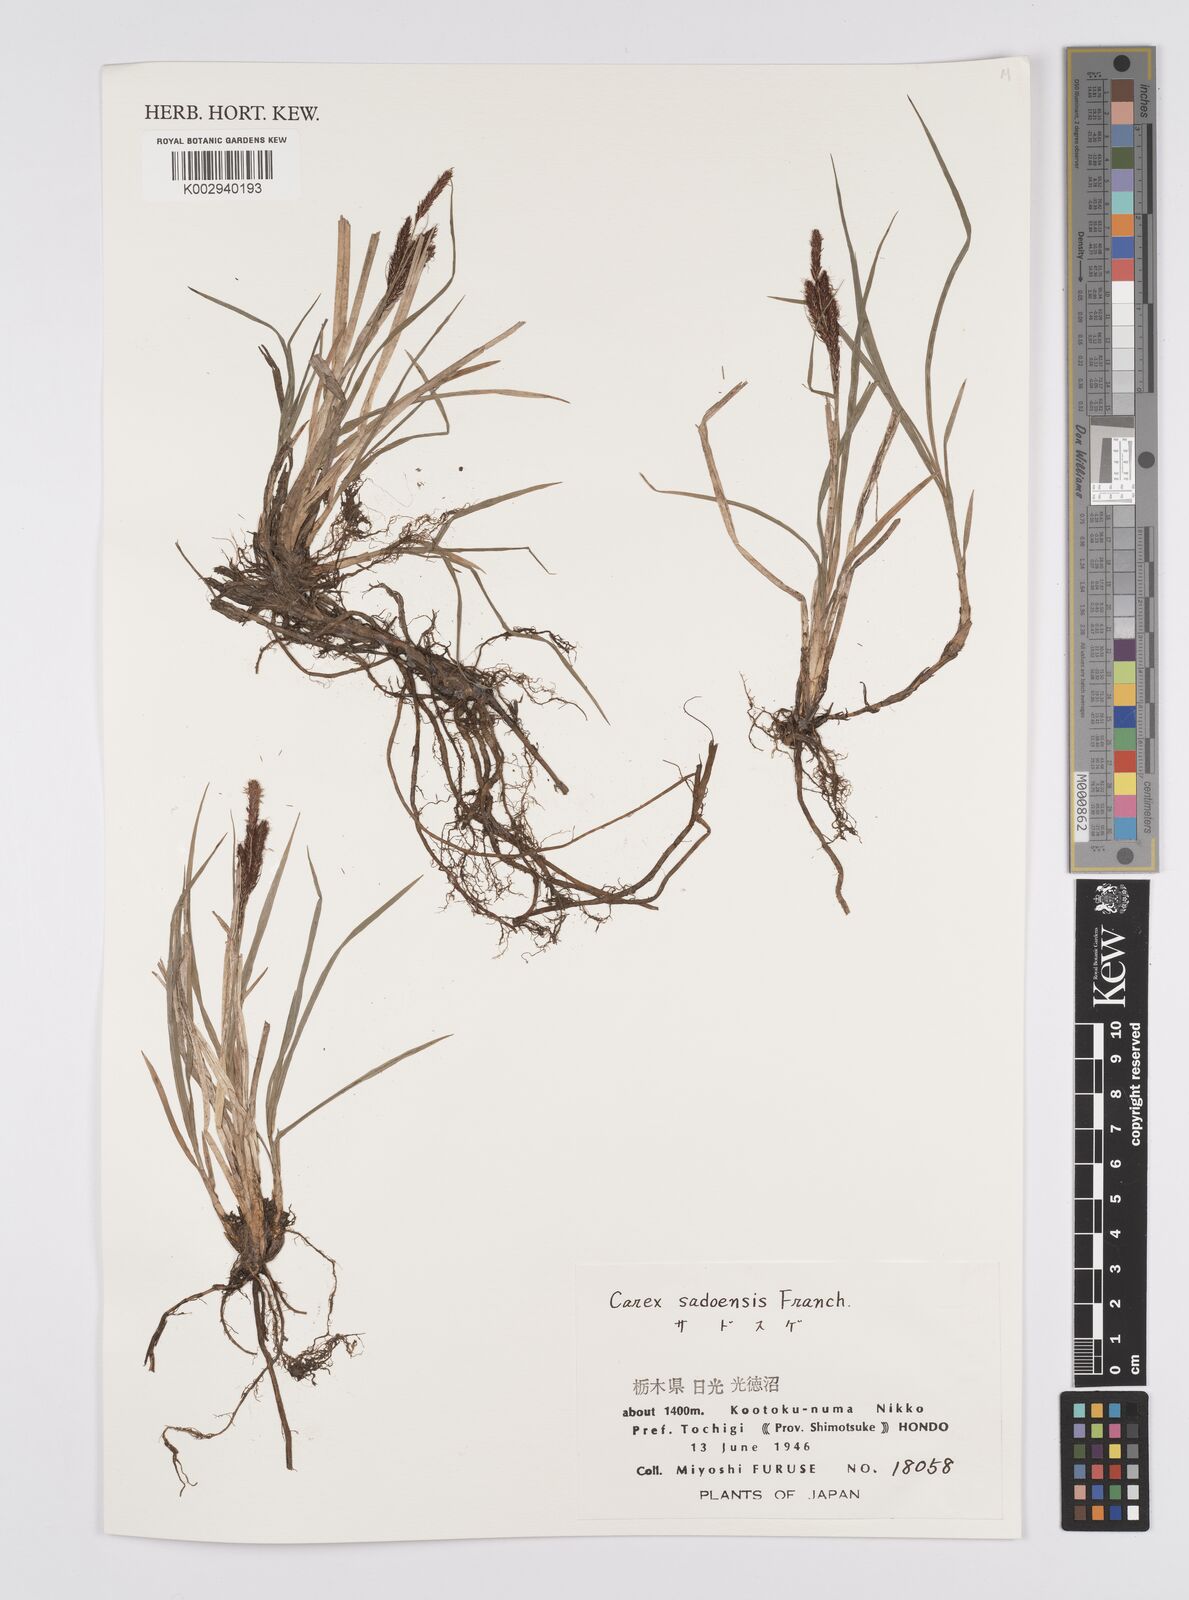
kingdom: Plantae
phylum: Tracheophyta
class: Liliopsida
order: Poales
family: Cyperaceae
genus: Carex
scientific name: Carex sadoensis
